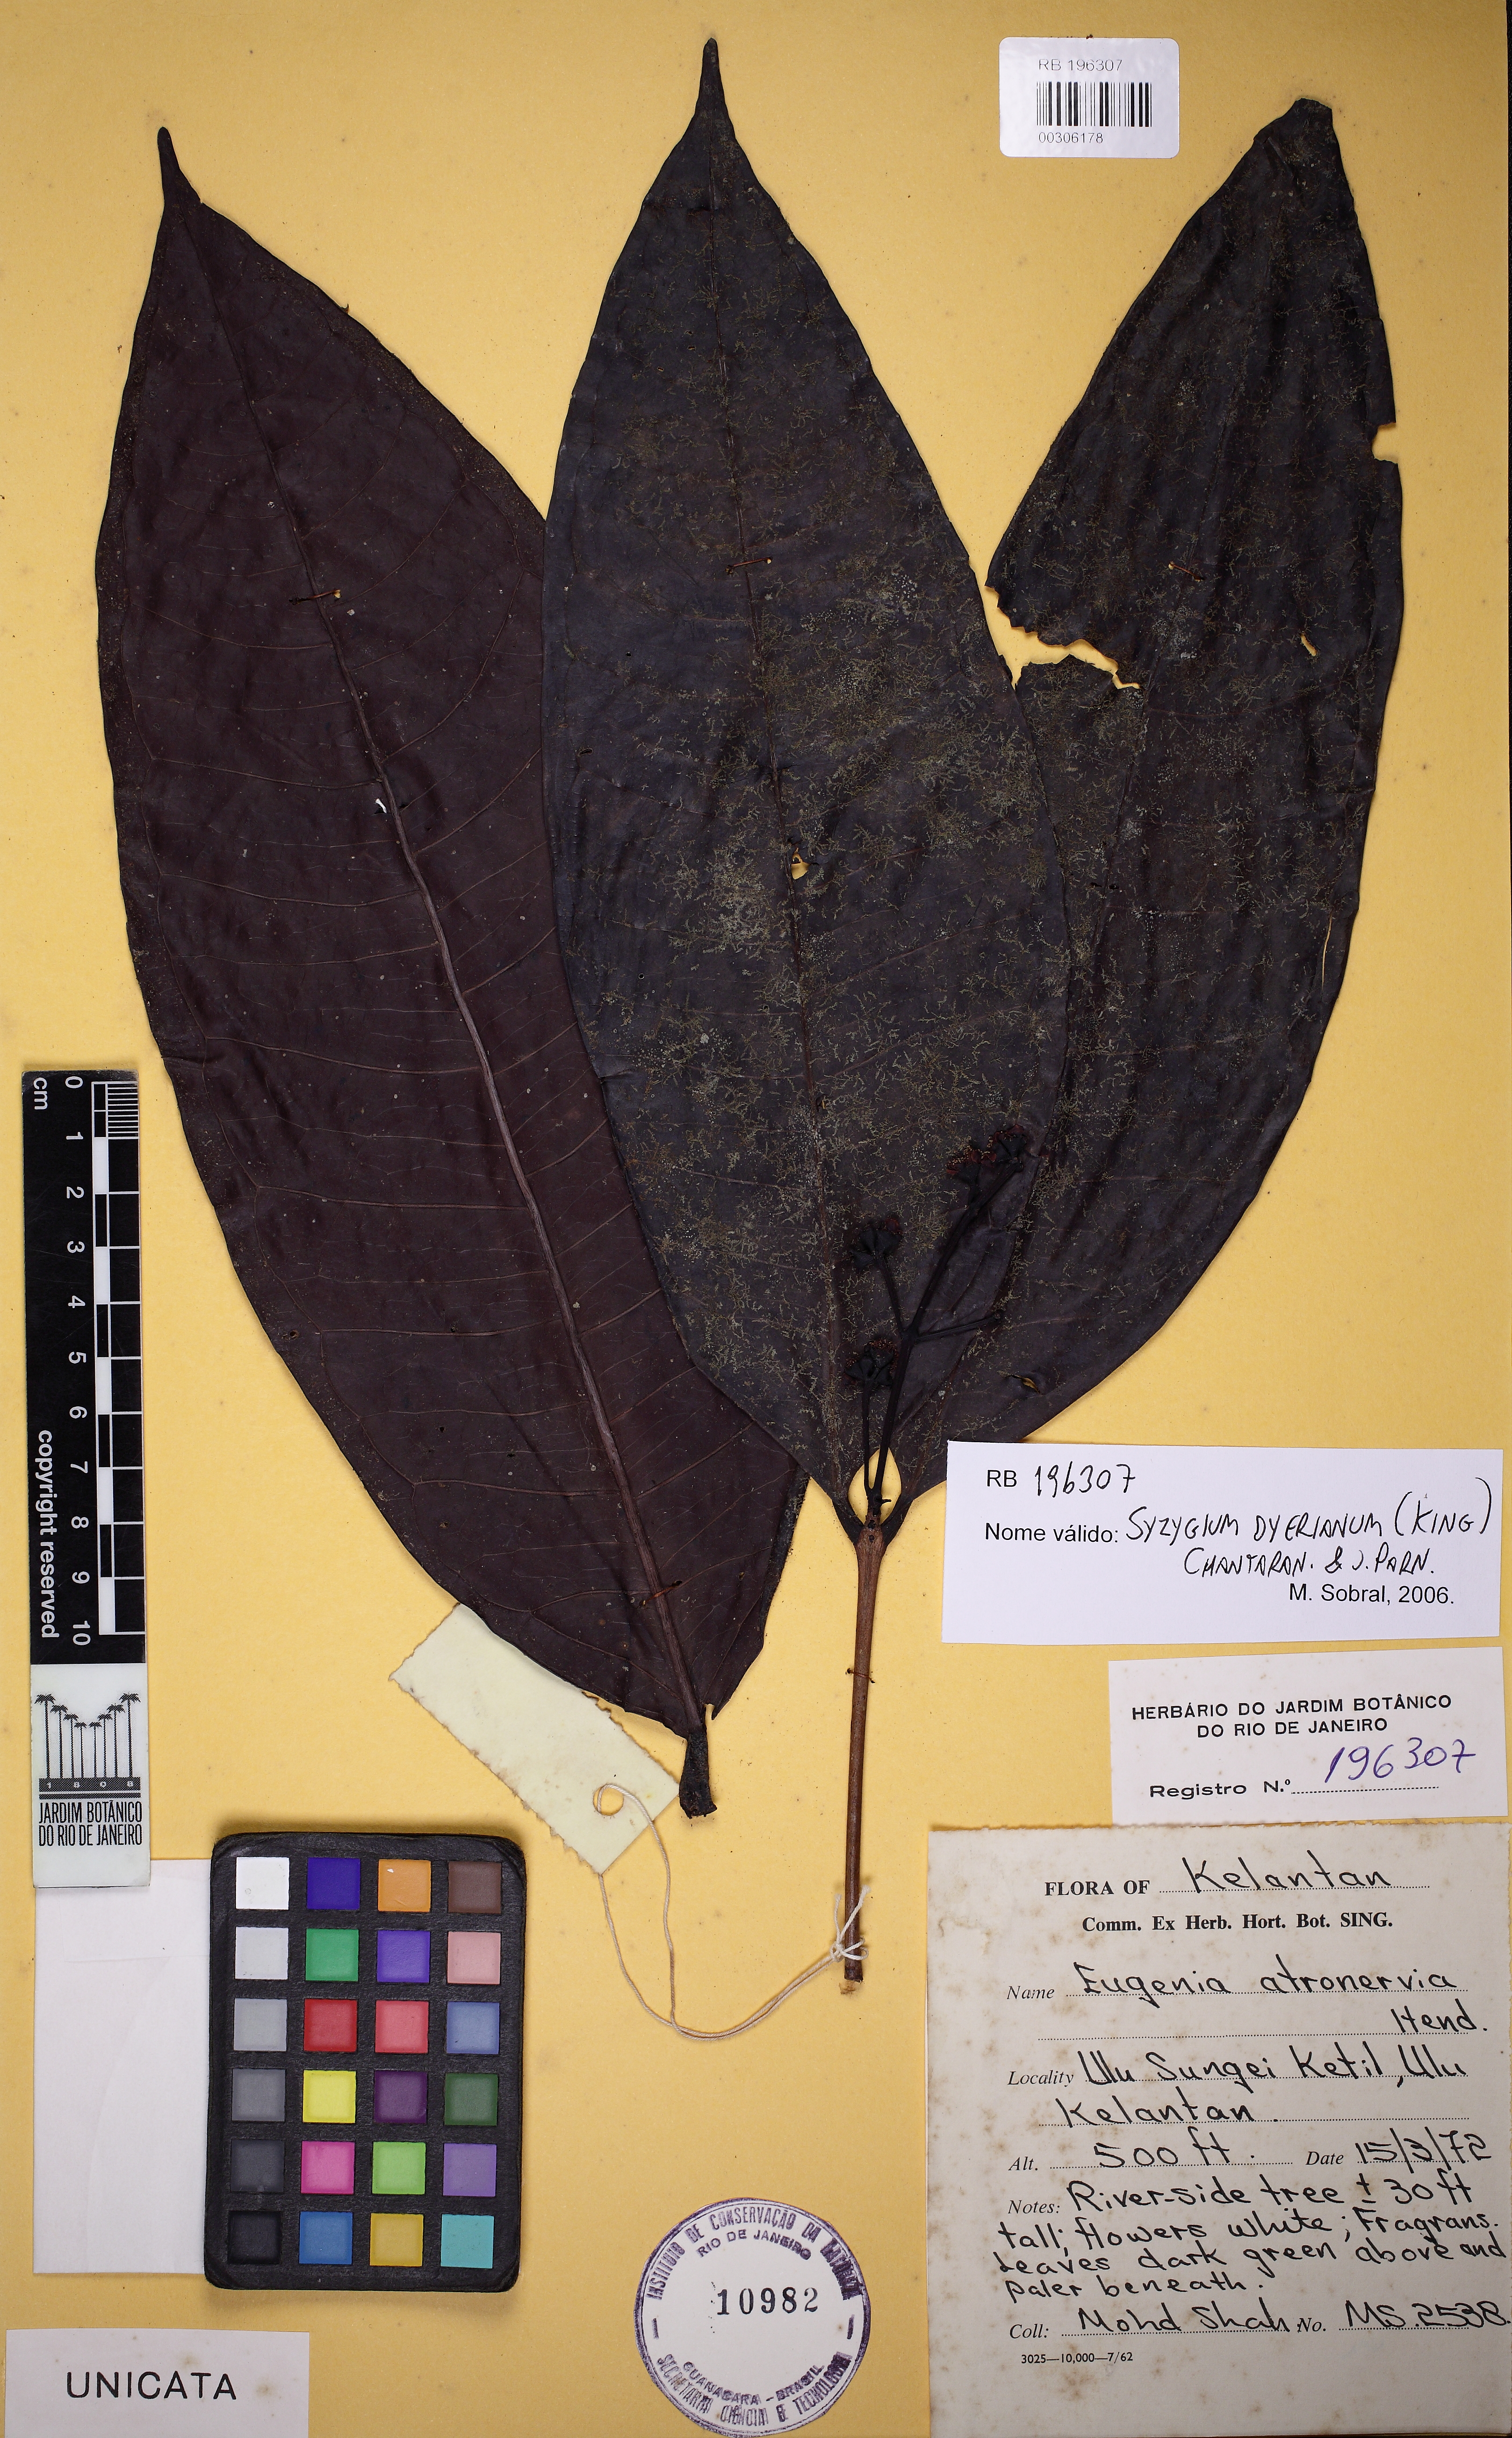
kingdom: Plantae
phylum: Tracheophyta
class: Magnoliopsida
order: Myrtales
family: Myrtaceae
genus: Syzygium
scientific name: Syzygium dyerianum
